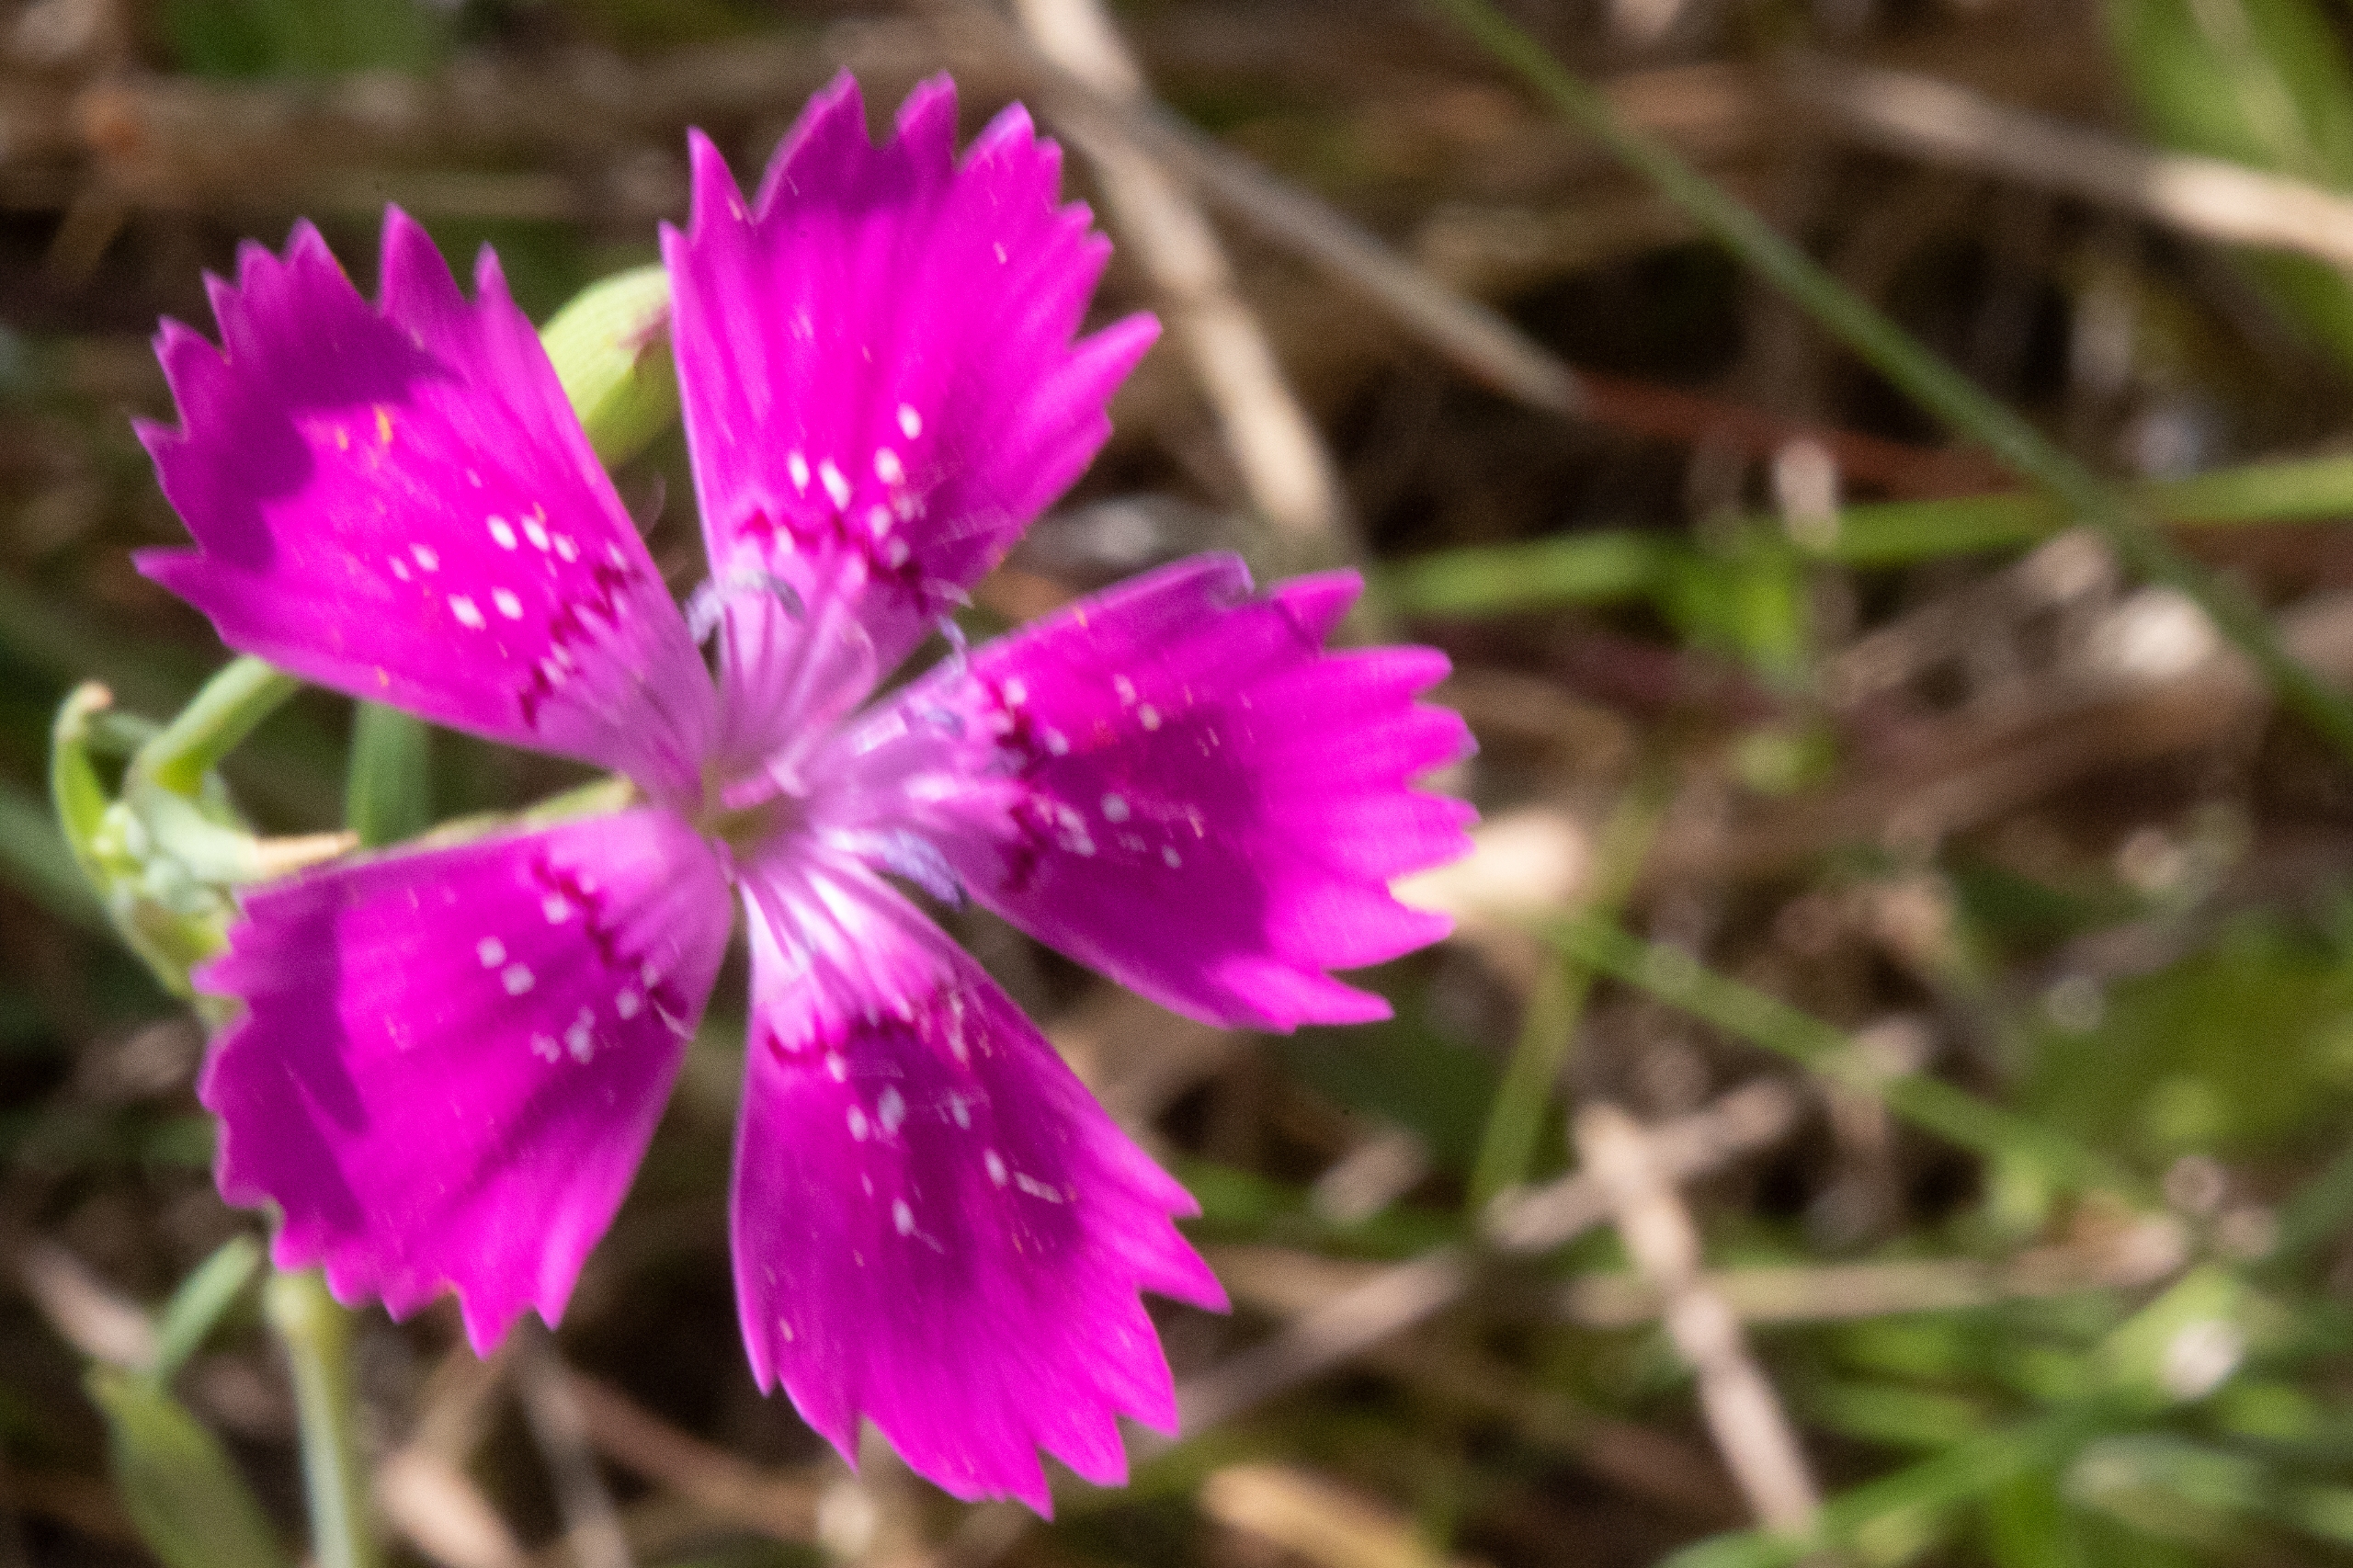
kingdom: Plantae
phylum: Tracheophyta
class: Magnoliopsida
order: Caryophyllales
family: Caryophyllaceae
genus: Dianthus
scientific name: Dianthus deltoides
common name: Bakke-nellike
